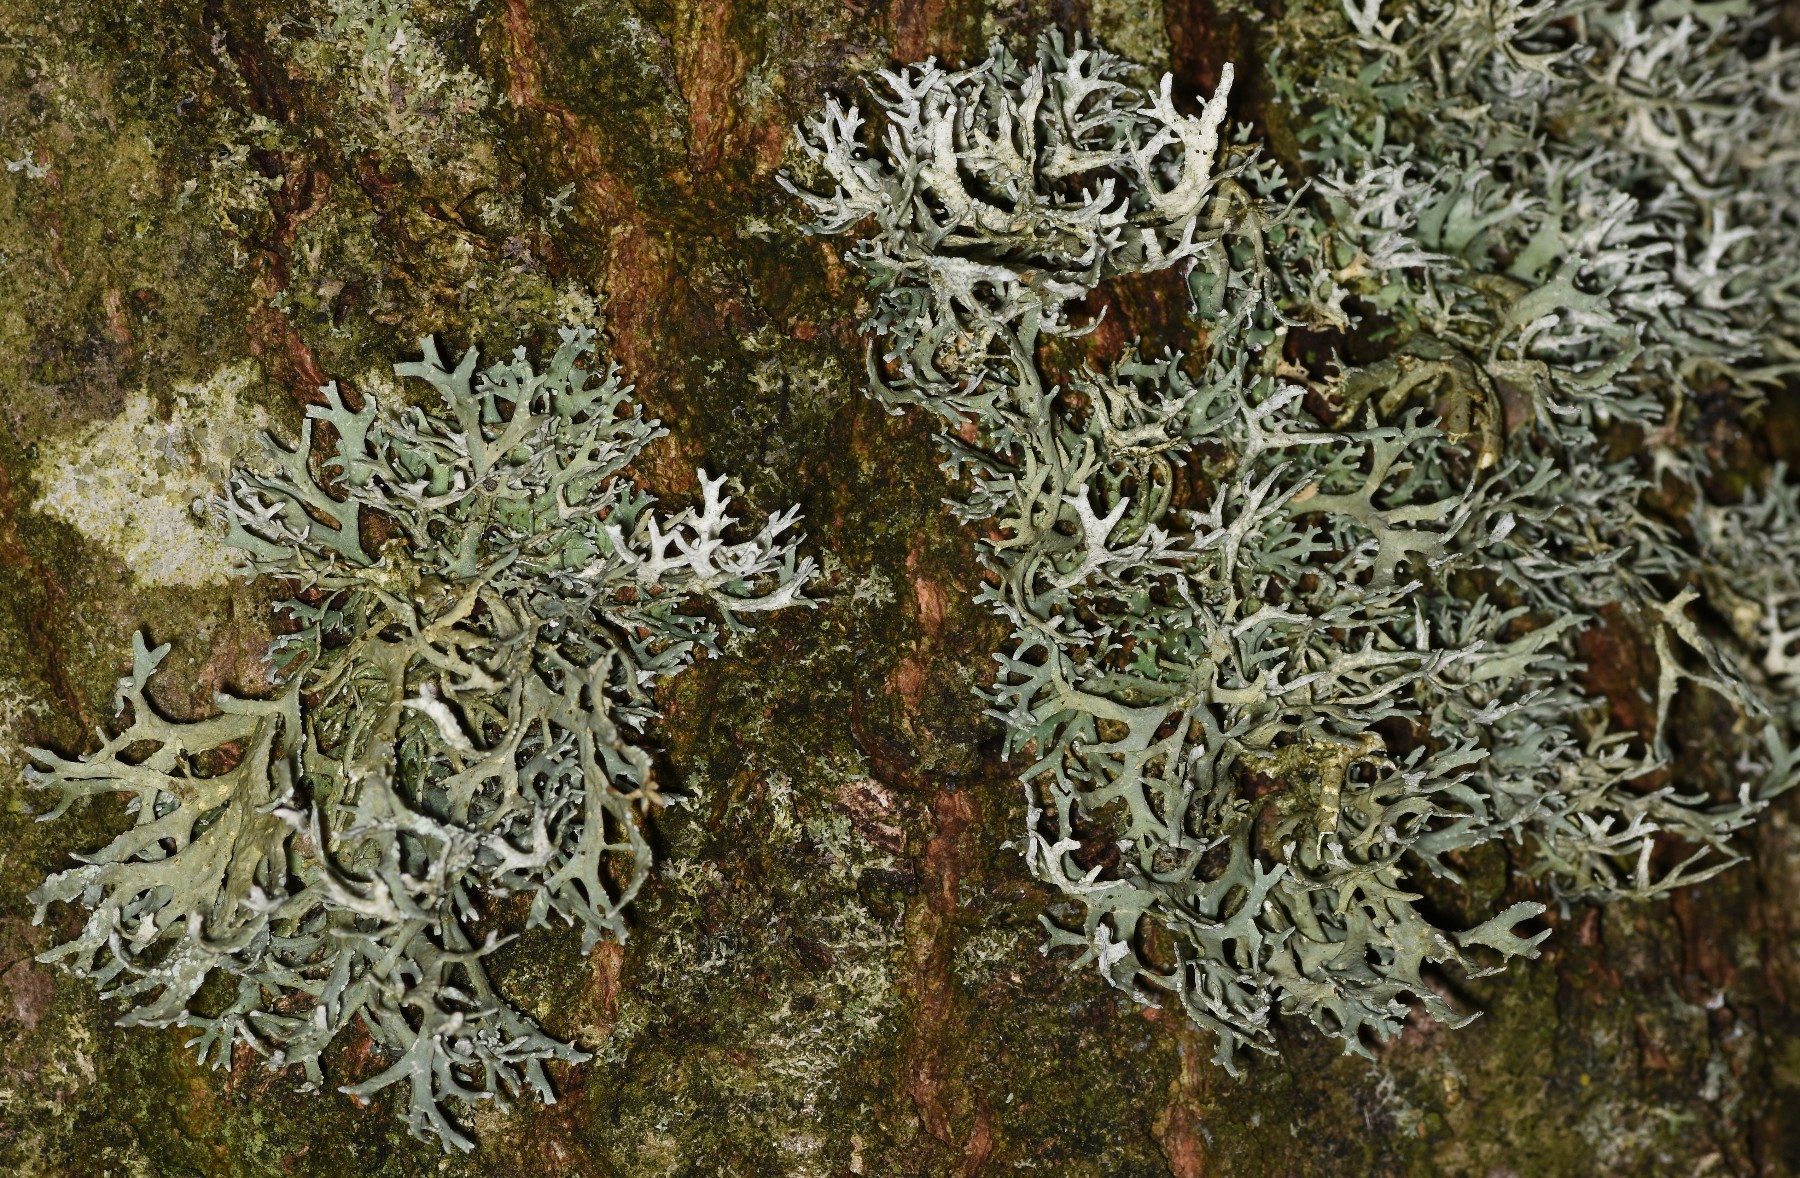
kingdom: Fungi
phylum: Ascomycota
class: Lecanoromycetes
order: Lecanorales
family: Parmeliaceae
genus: Evernia
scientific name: Evernia prunastri
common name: almindelig slåenlav
